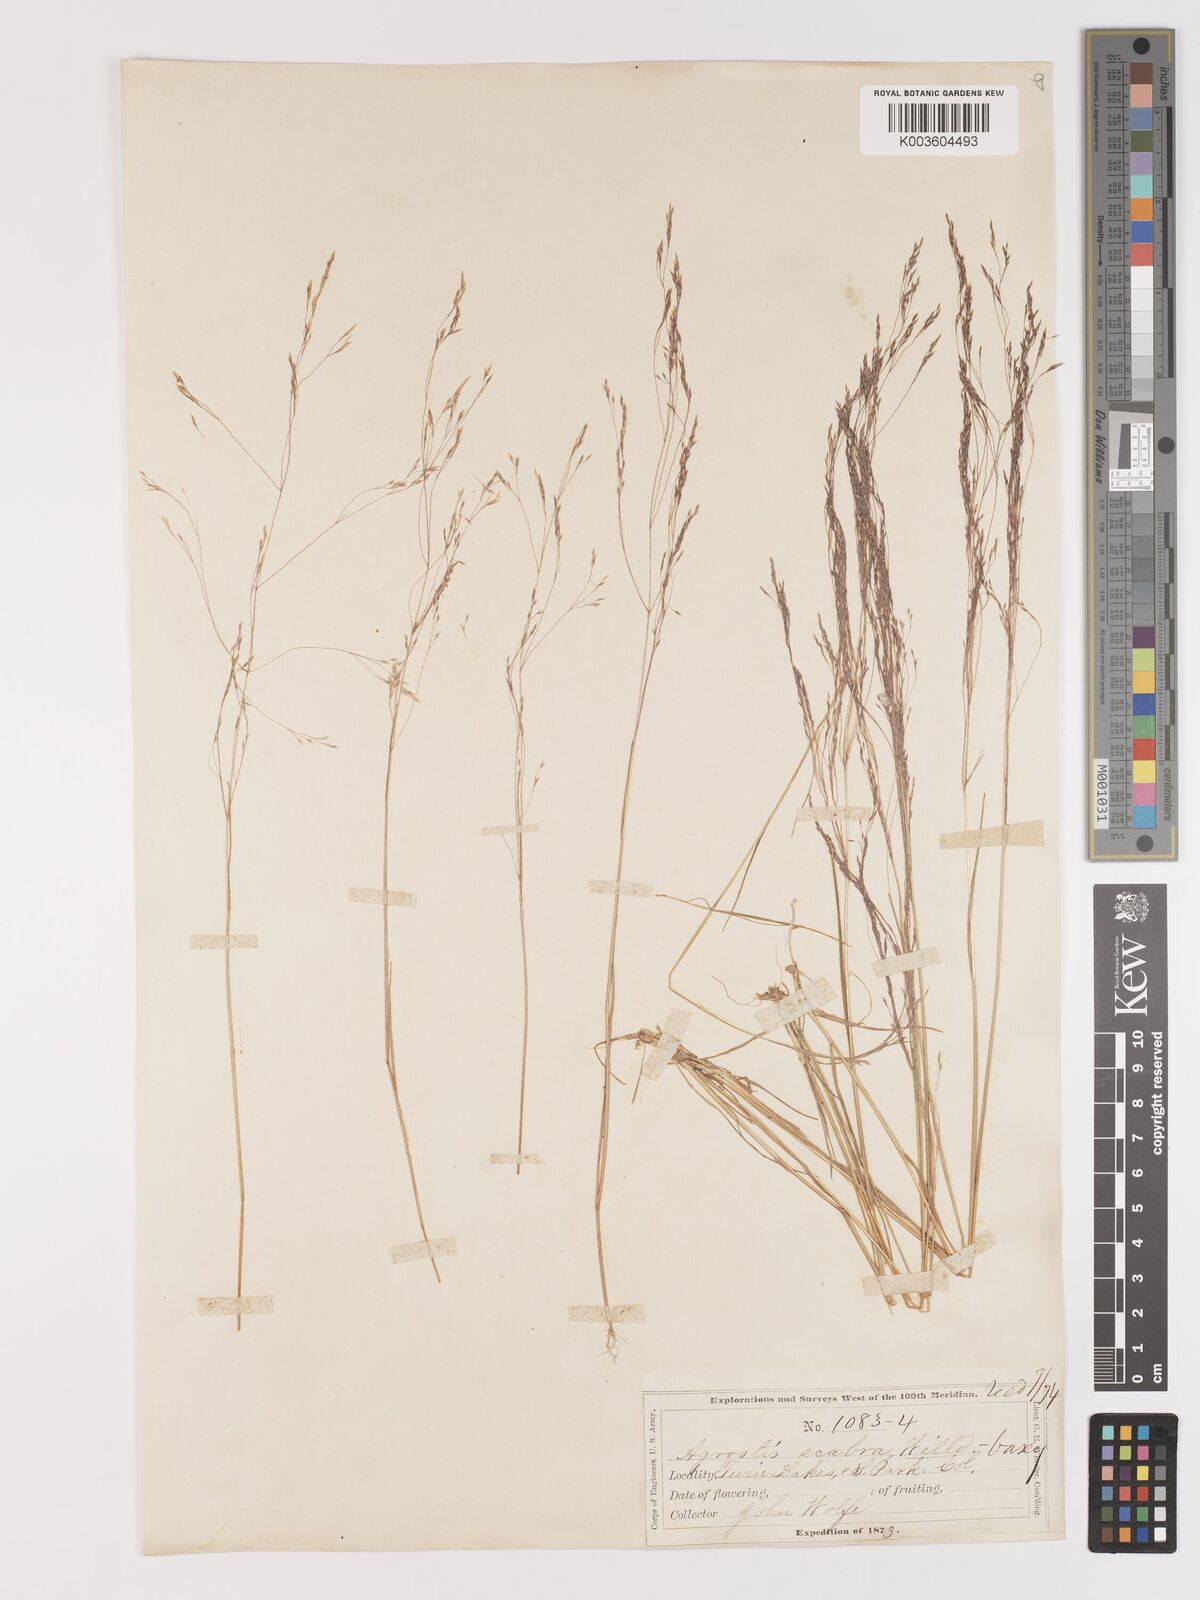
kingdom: Plantae
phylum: Tracheophyta
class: Liliopsida
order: Poales
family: Poaceae
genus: Agrostis
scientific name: Agrostis hyemalis
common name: Small bent
